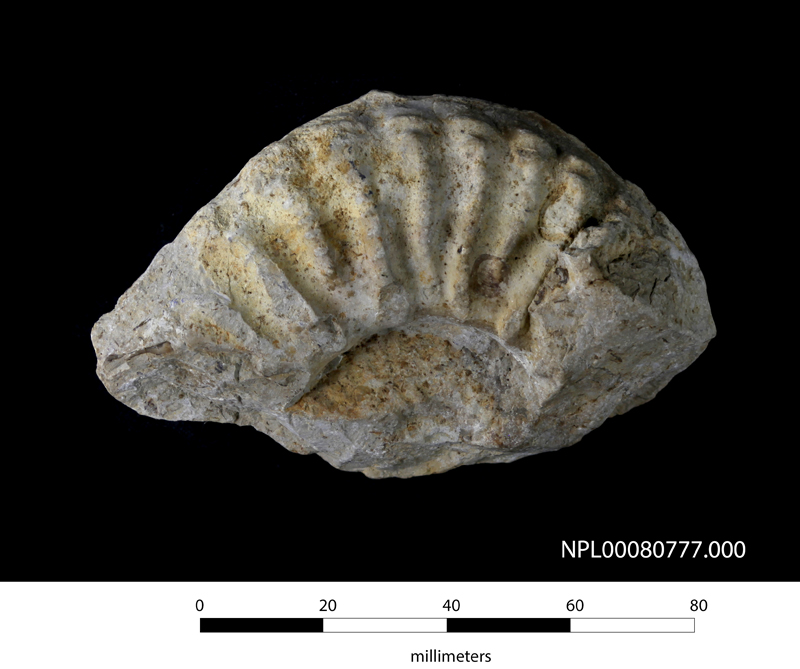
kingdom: Animalia
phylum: Mollusca
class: Cephalopoda
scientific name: Cephalopoda
